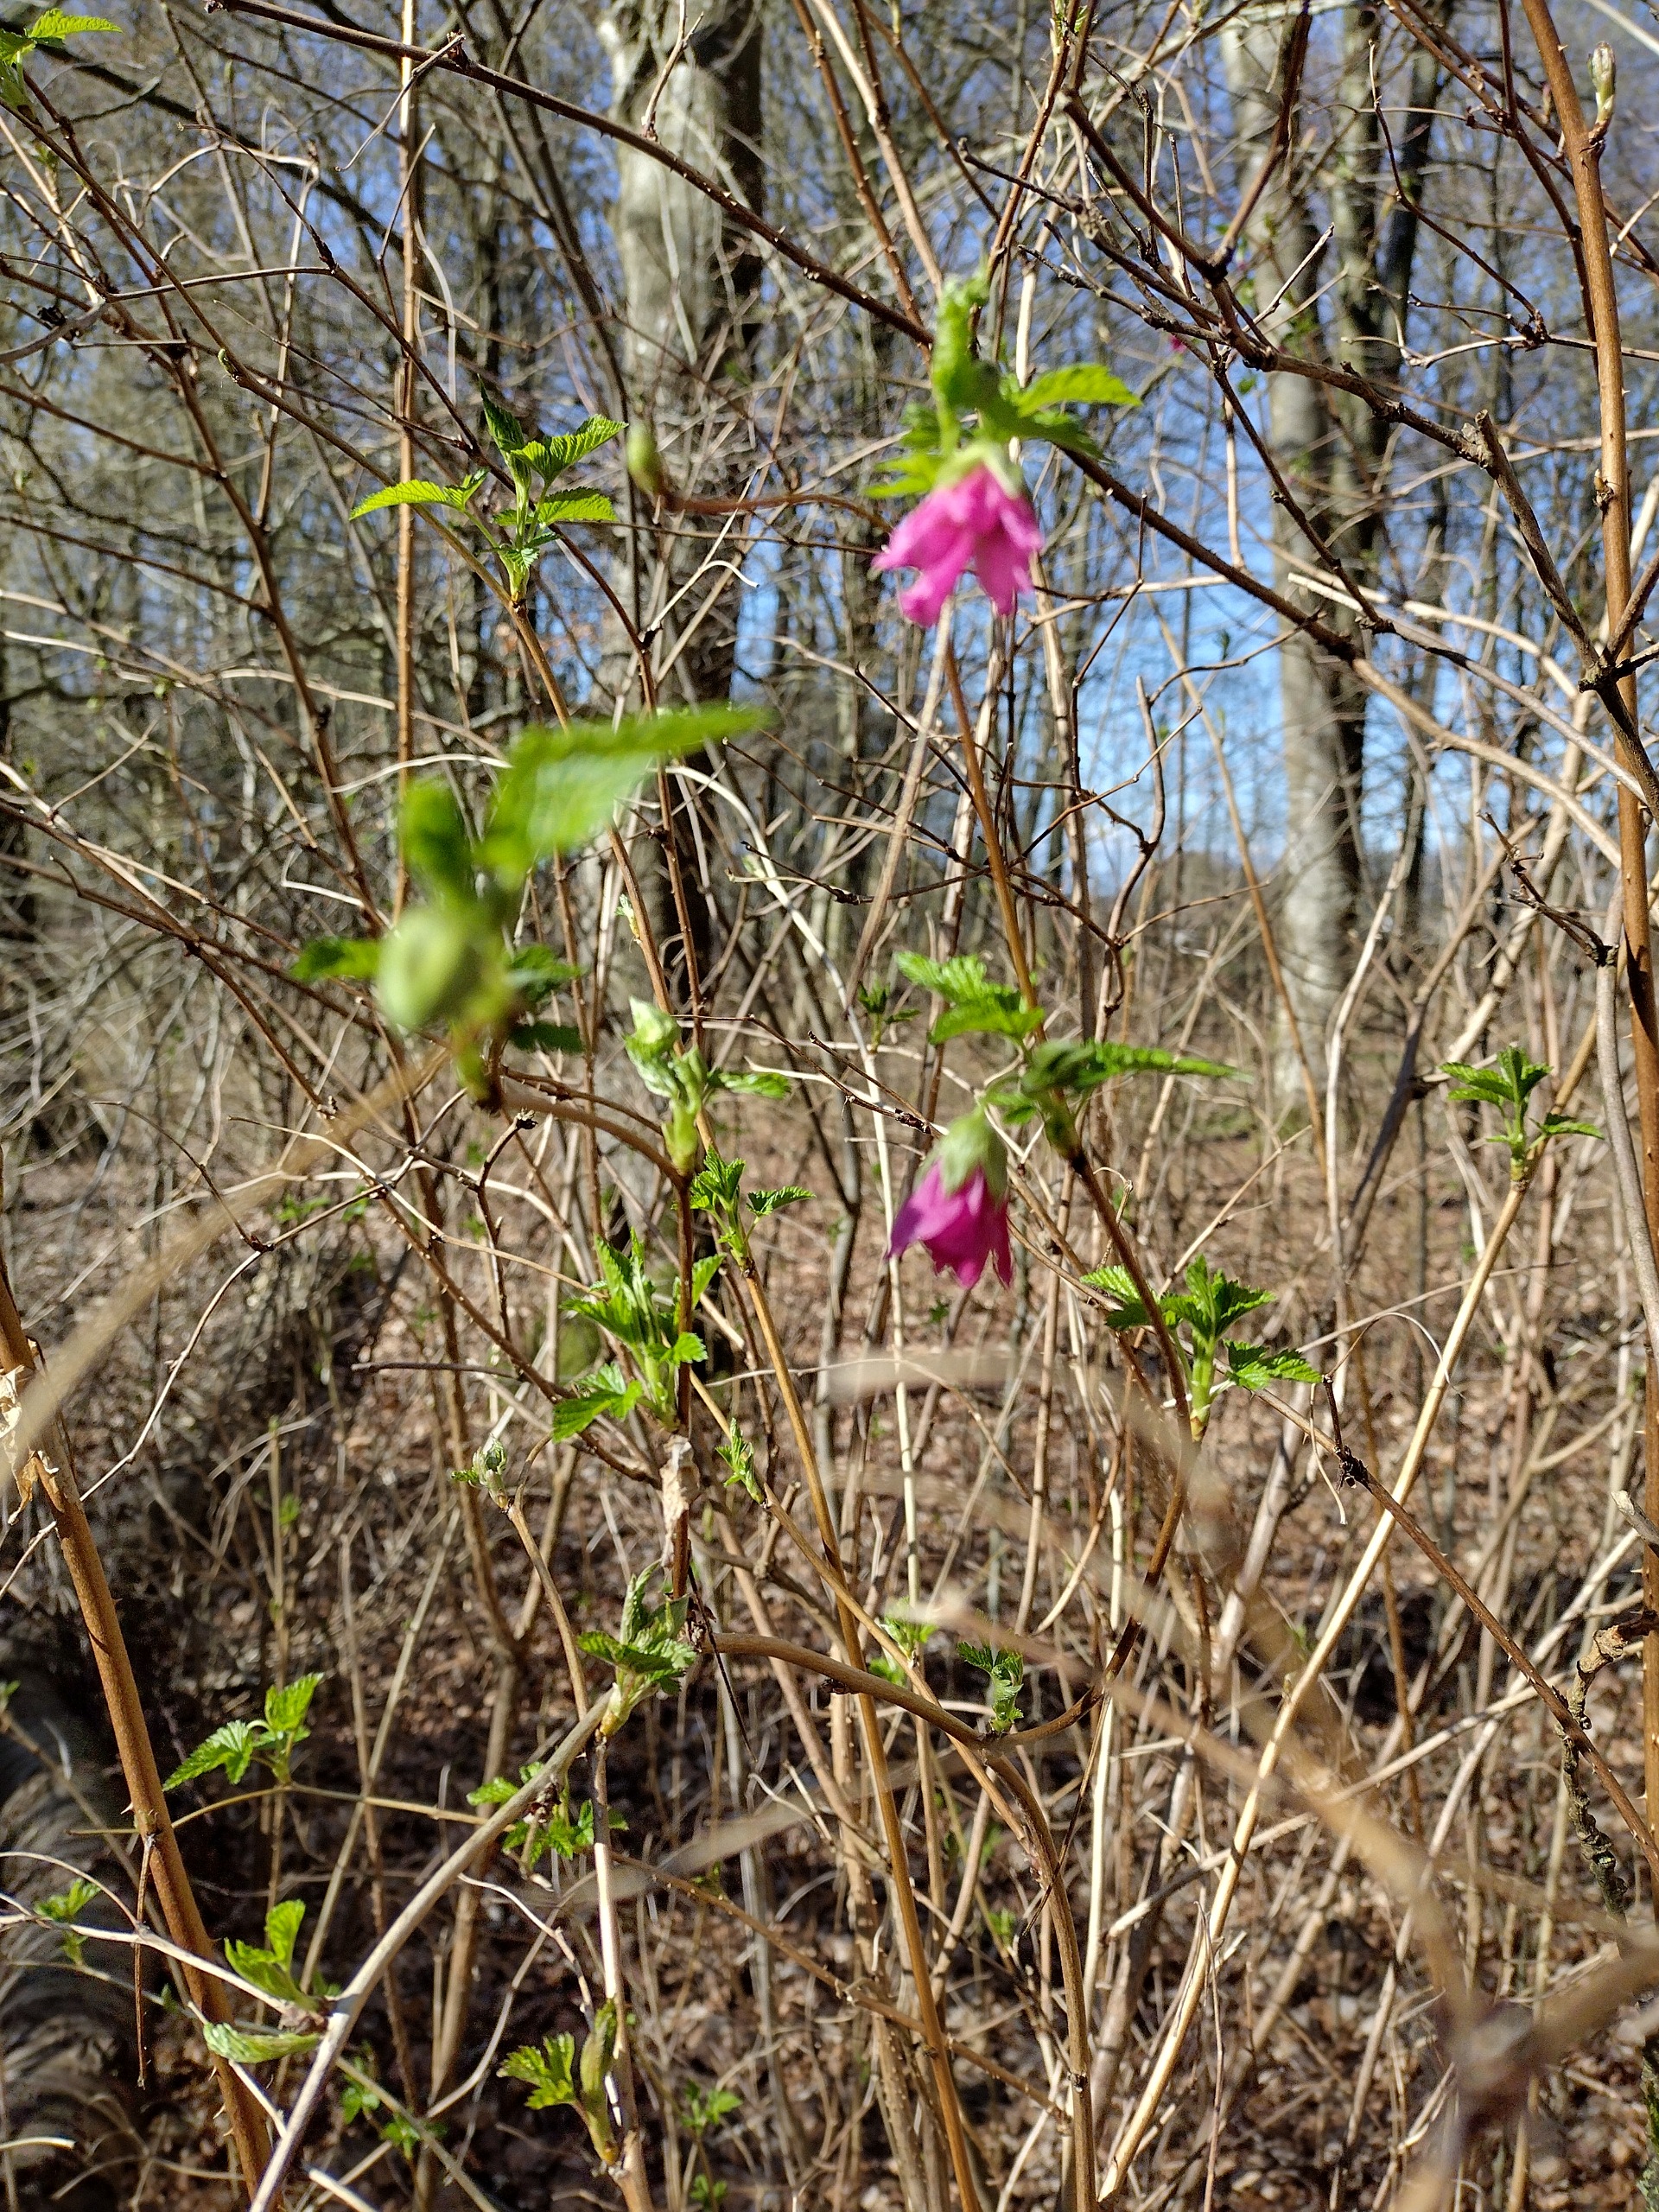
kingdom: Plantae
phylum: Tracheophyta
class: Magnoliopsida
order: Rosales
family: Rosaceae
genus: Rubus
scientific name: Rubus spectabilis
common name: Laksebær
